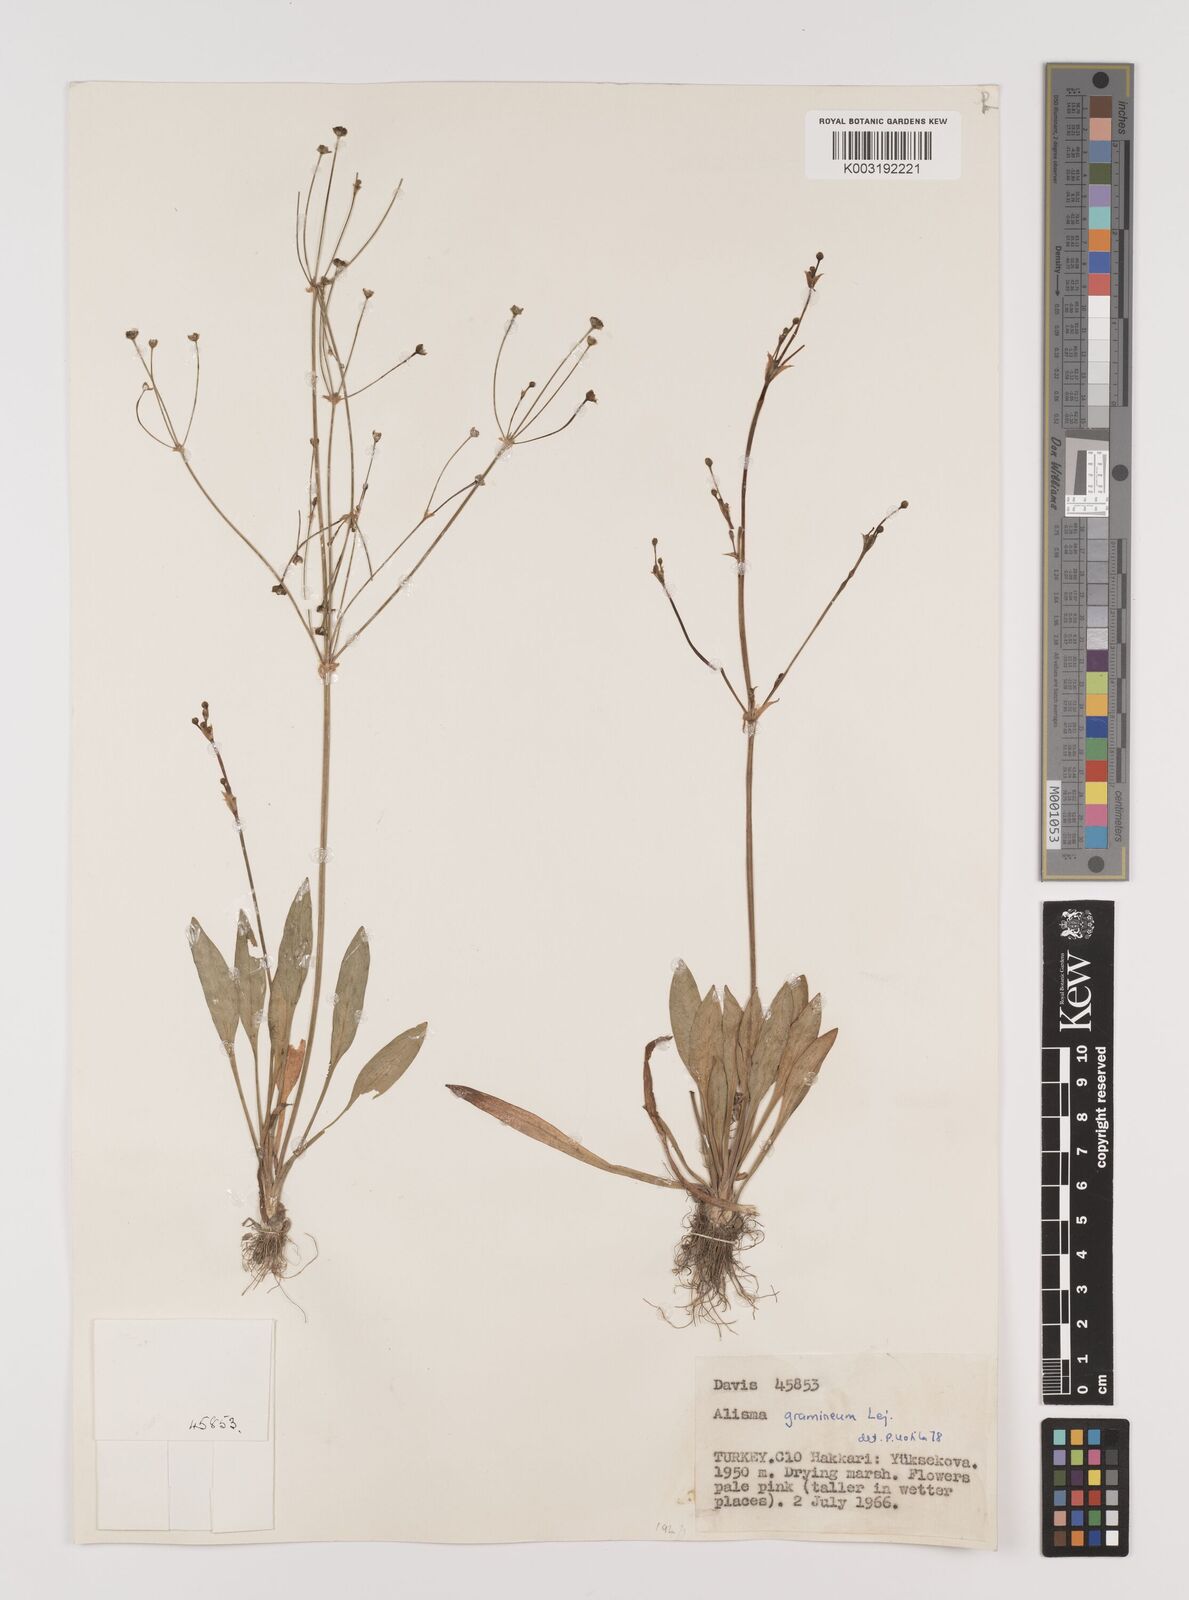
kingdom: Plantae
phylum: Tracheophyta
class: Liliopsida
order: Alismatales
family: Alismataceae
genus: Alisma
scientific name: Alisma gramineum
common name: Ribbon-leaved water-plantain
